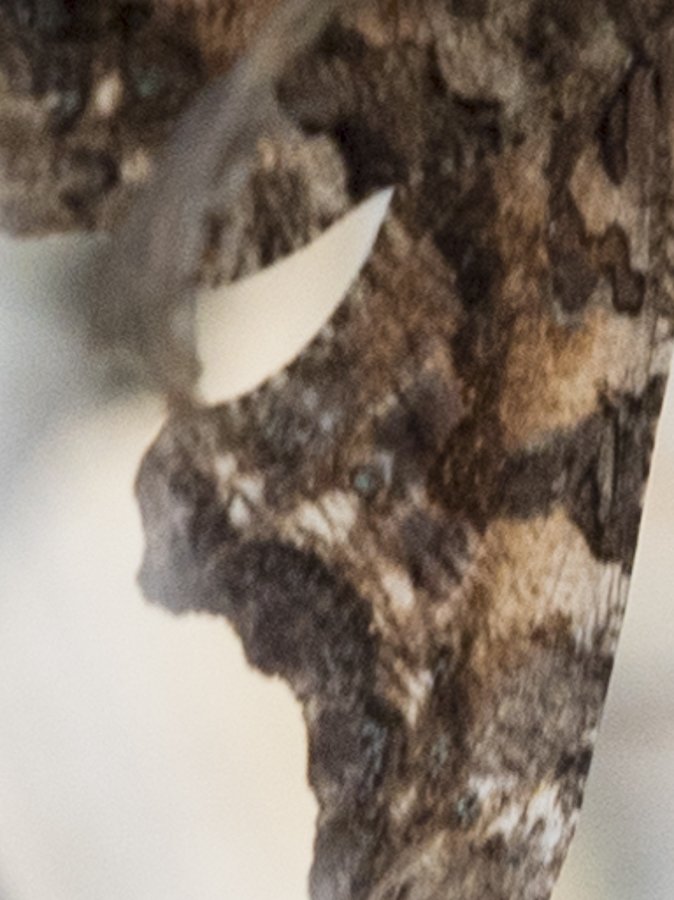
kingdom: Animalia
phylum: Arthropoda
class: Insecta
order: Lepidoptera
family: Nymphalidae
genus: Polygonia
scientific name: Polygonia faunus
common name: Green Comma
